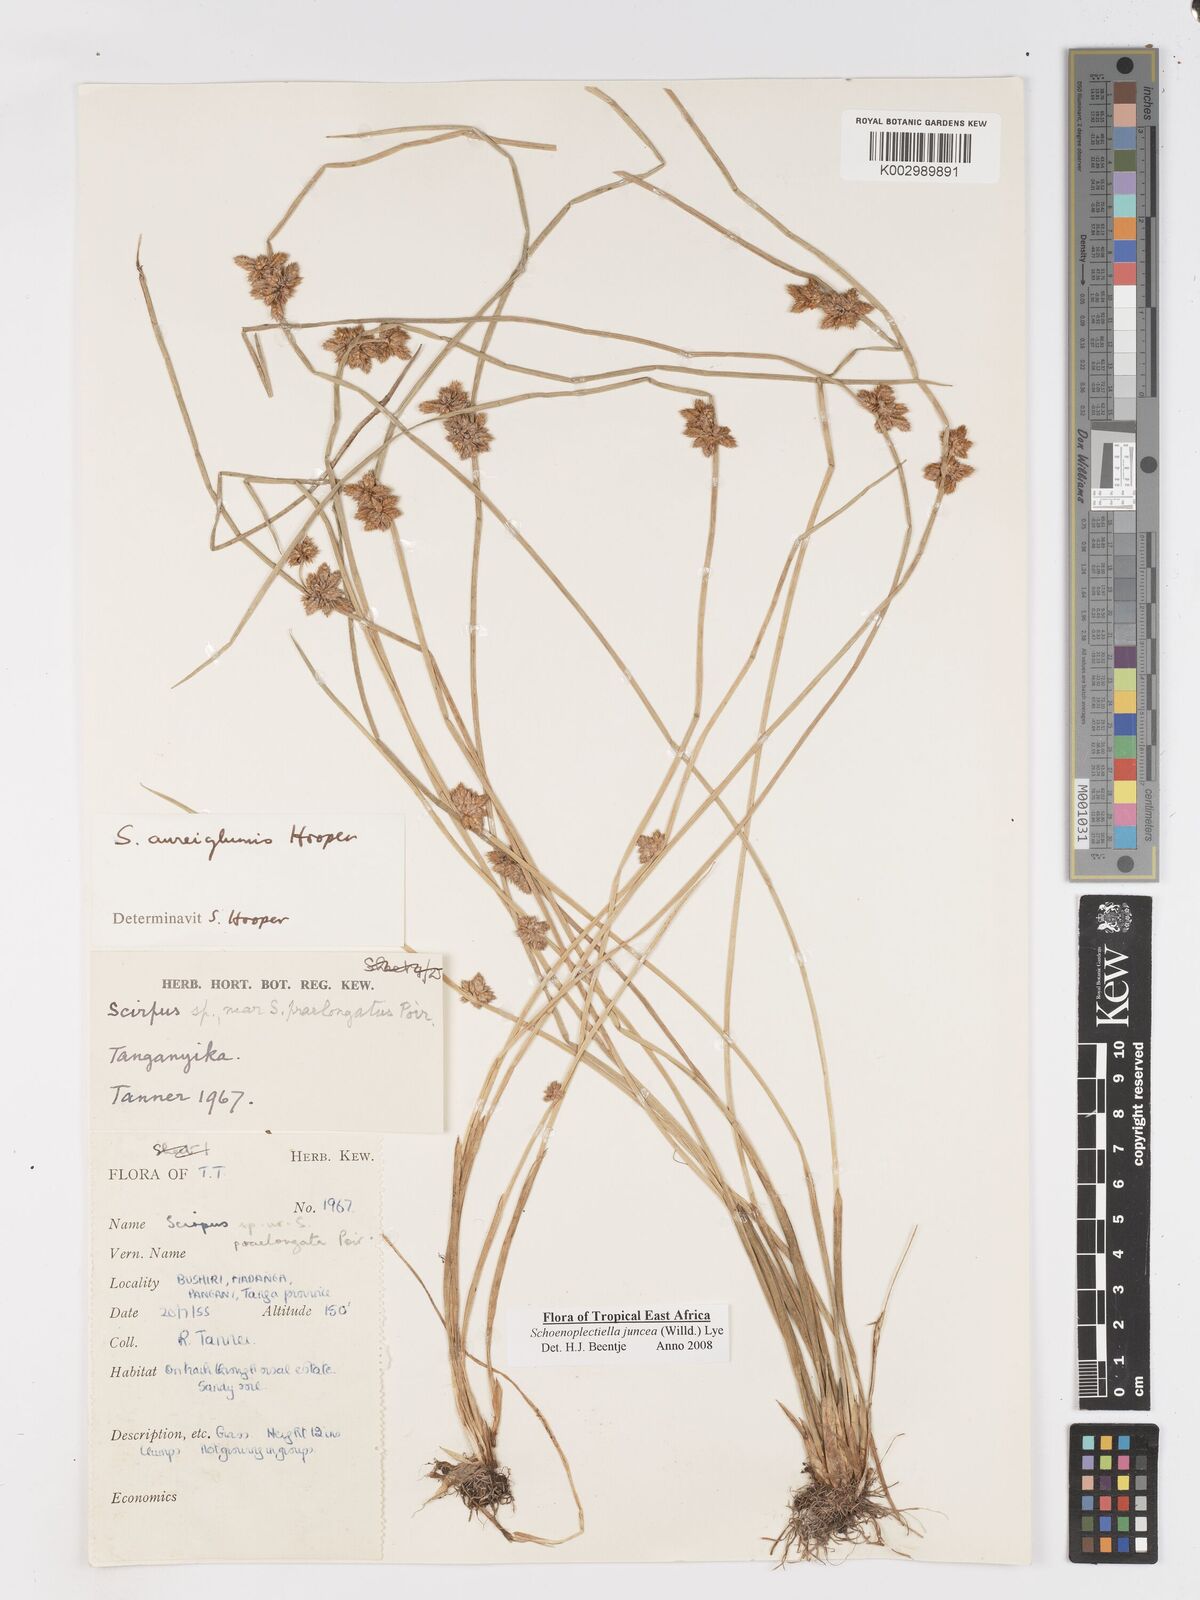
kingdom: Plantae
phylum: Tracheophyta
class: Liliopsida
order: Poales
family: Cyperaceae
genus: Schoenoplectiella
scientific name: Schoenoplectiella juncea
